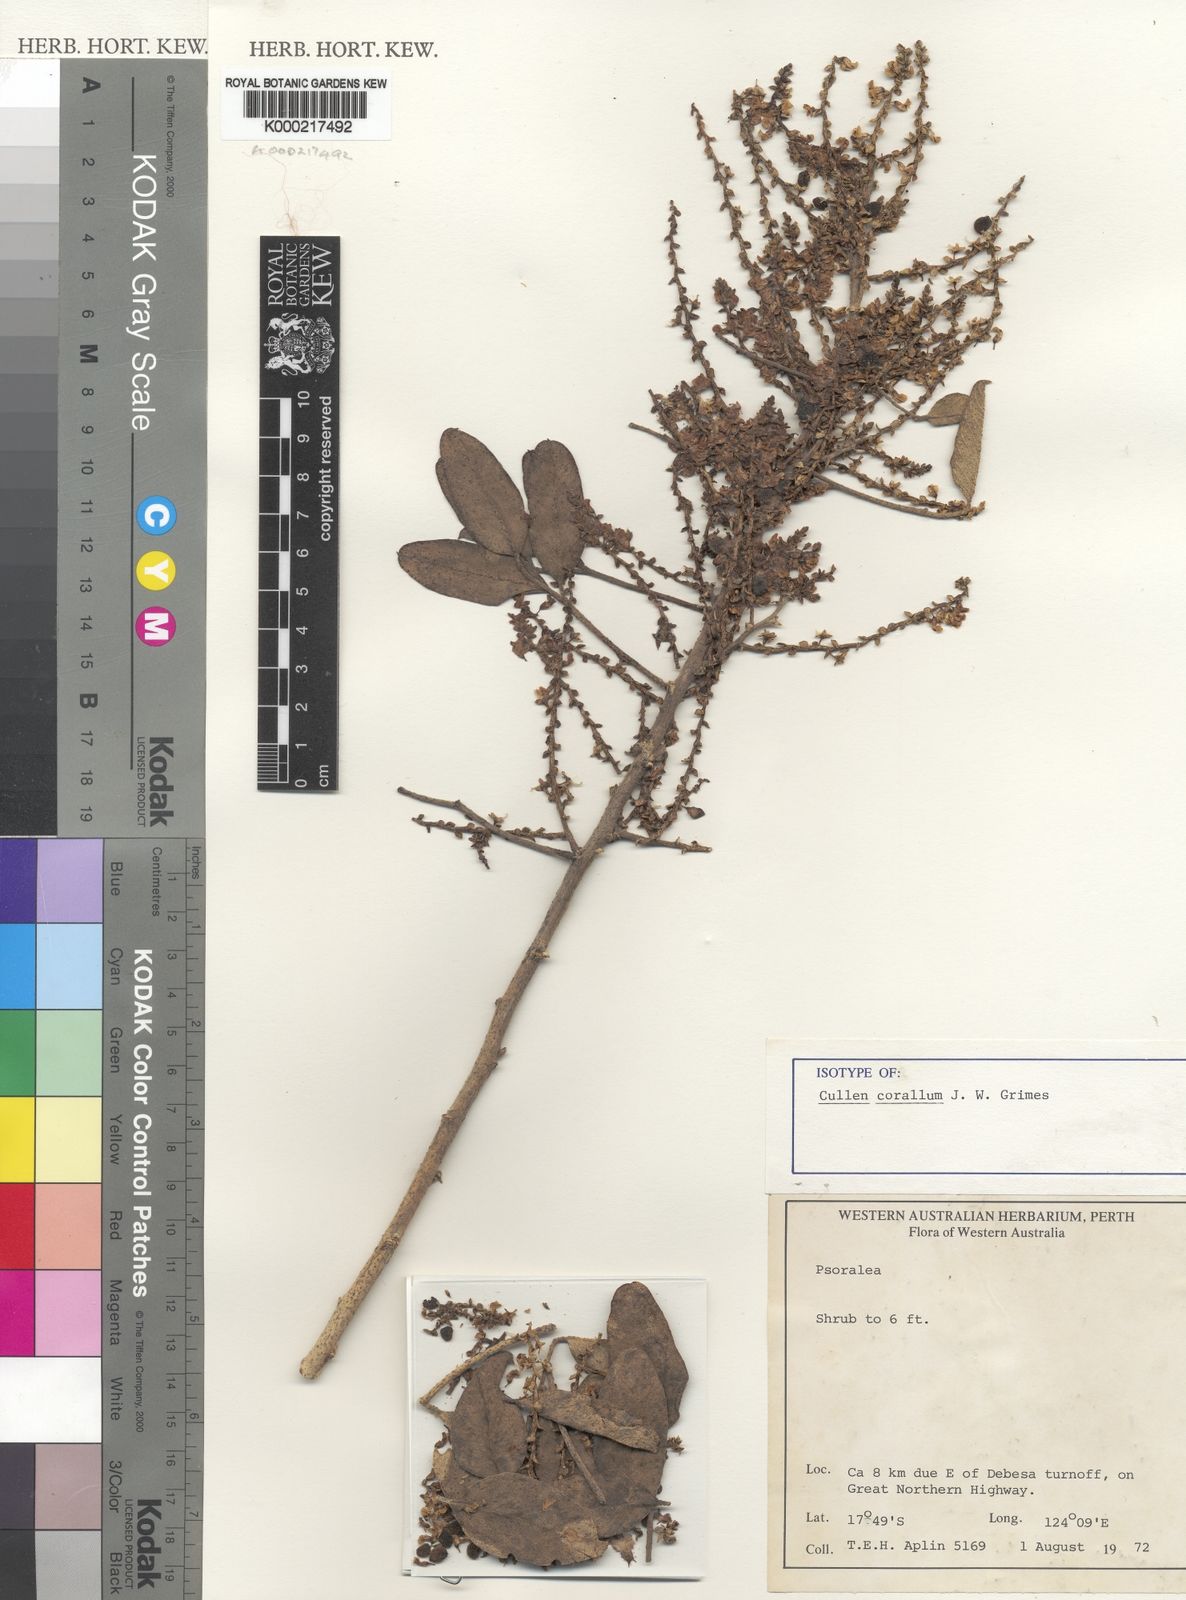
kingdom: Plantae
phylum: Tracheophyta
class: Magnoliopsida
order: Fabales
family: Fabaceae
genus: Cullen
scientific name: Cullen corallum
